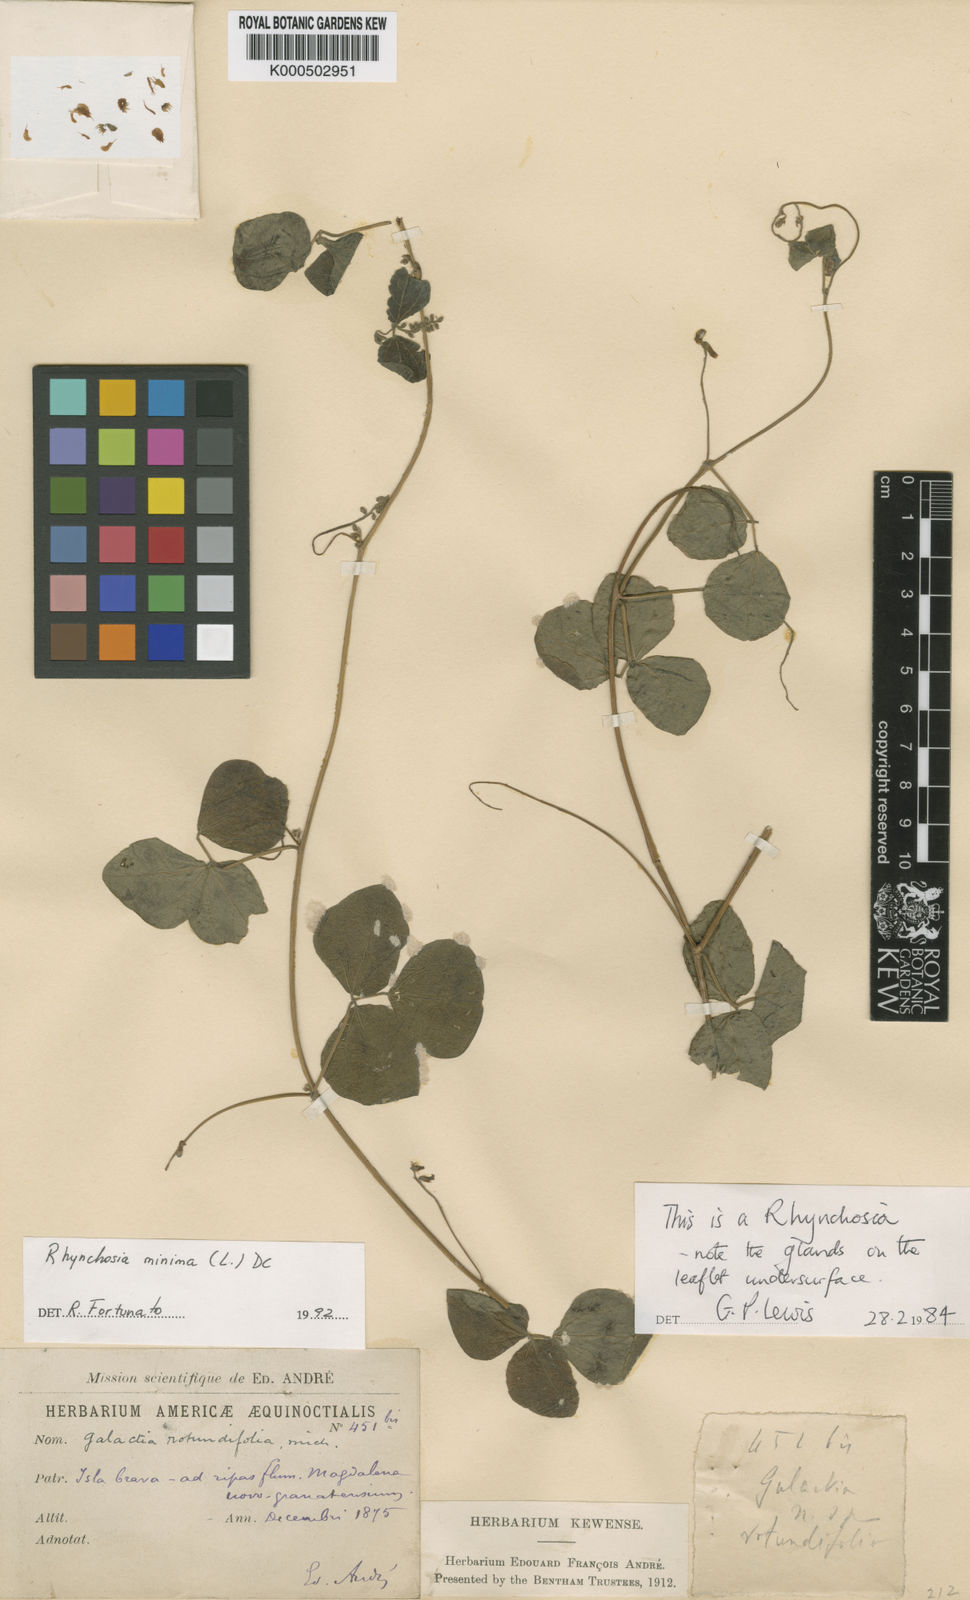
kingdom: Plantae
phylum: Tracheophyta
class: Magnoliopsida
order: Fabales
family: Fabaceae
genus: Rhynchosia
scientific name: Rhynchosia minima
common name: Least snoutbean
